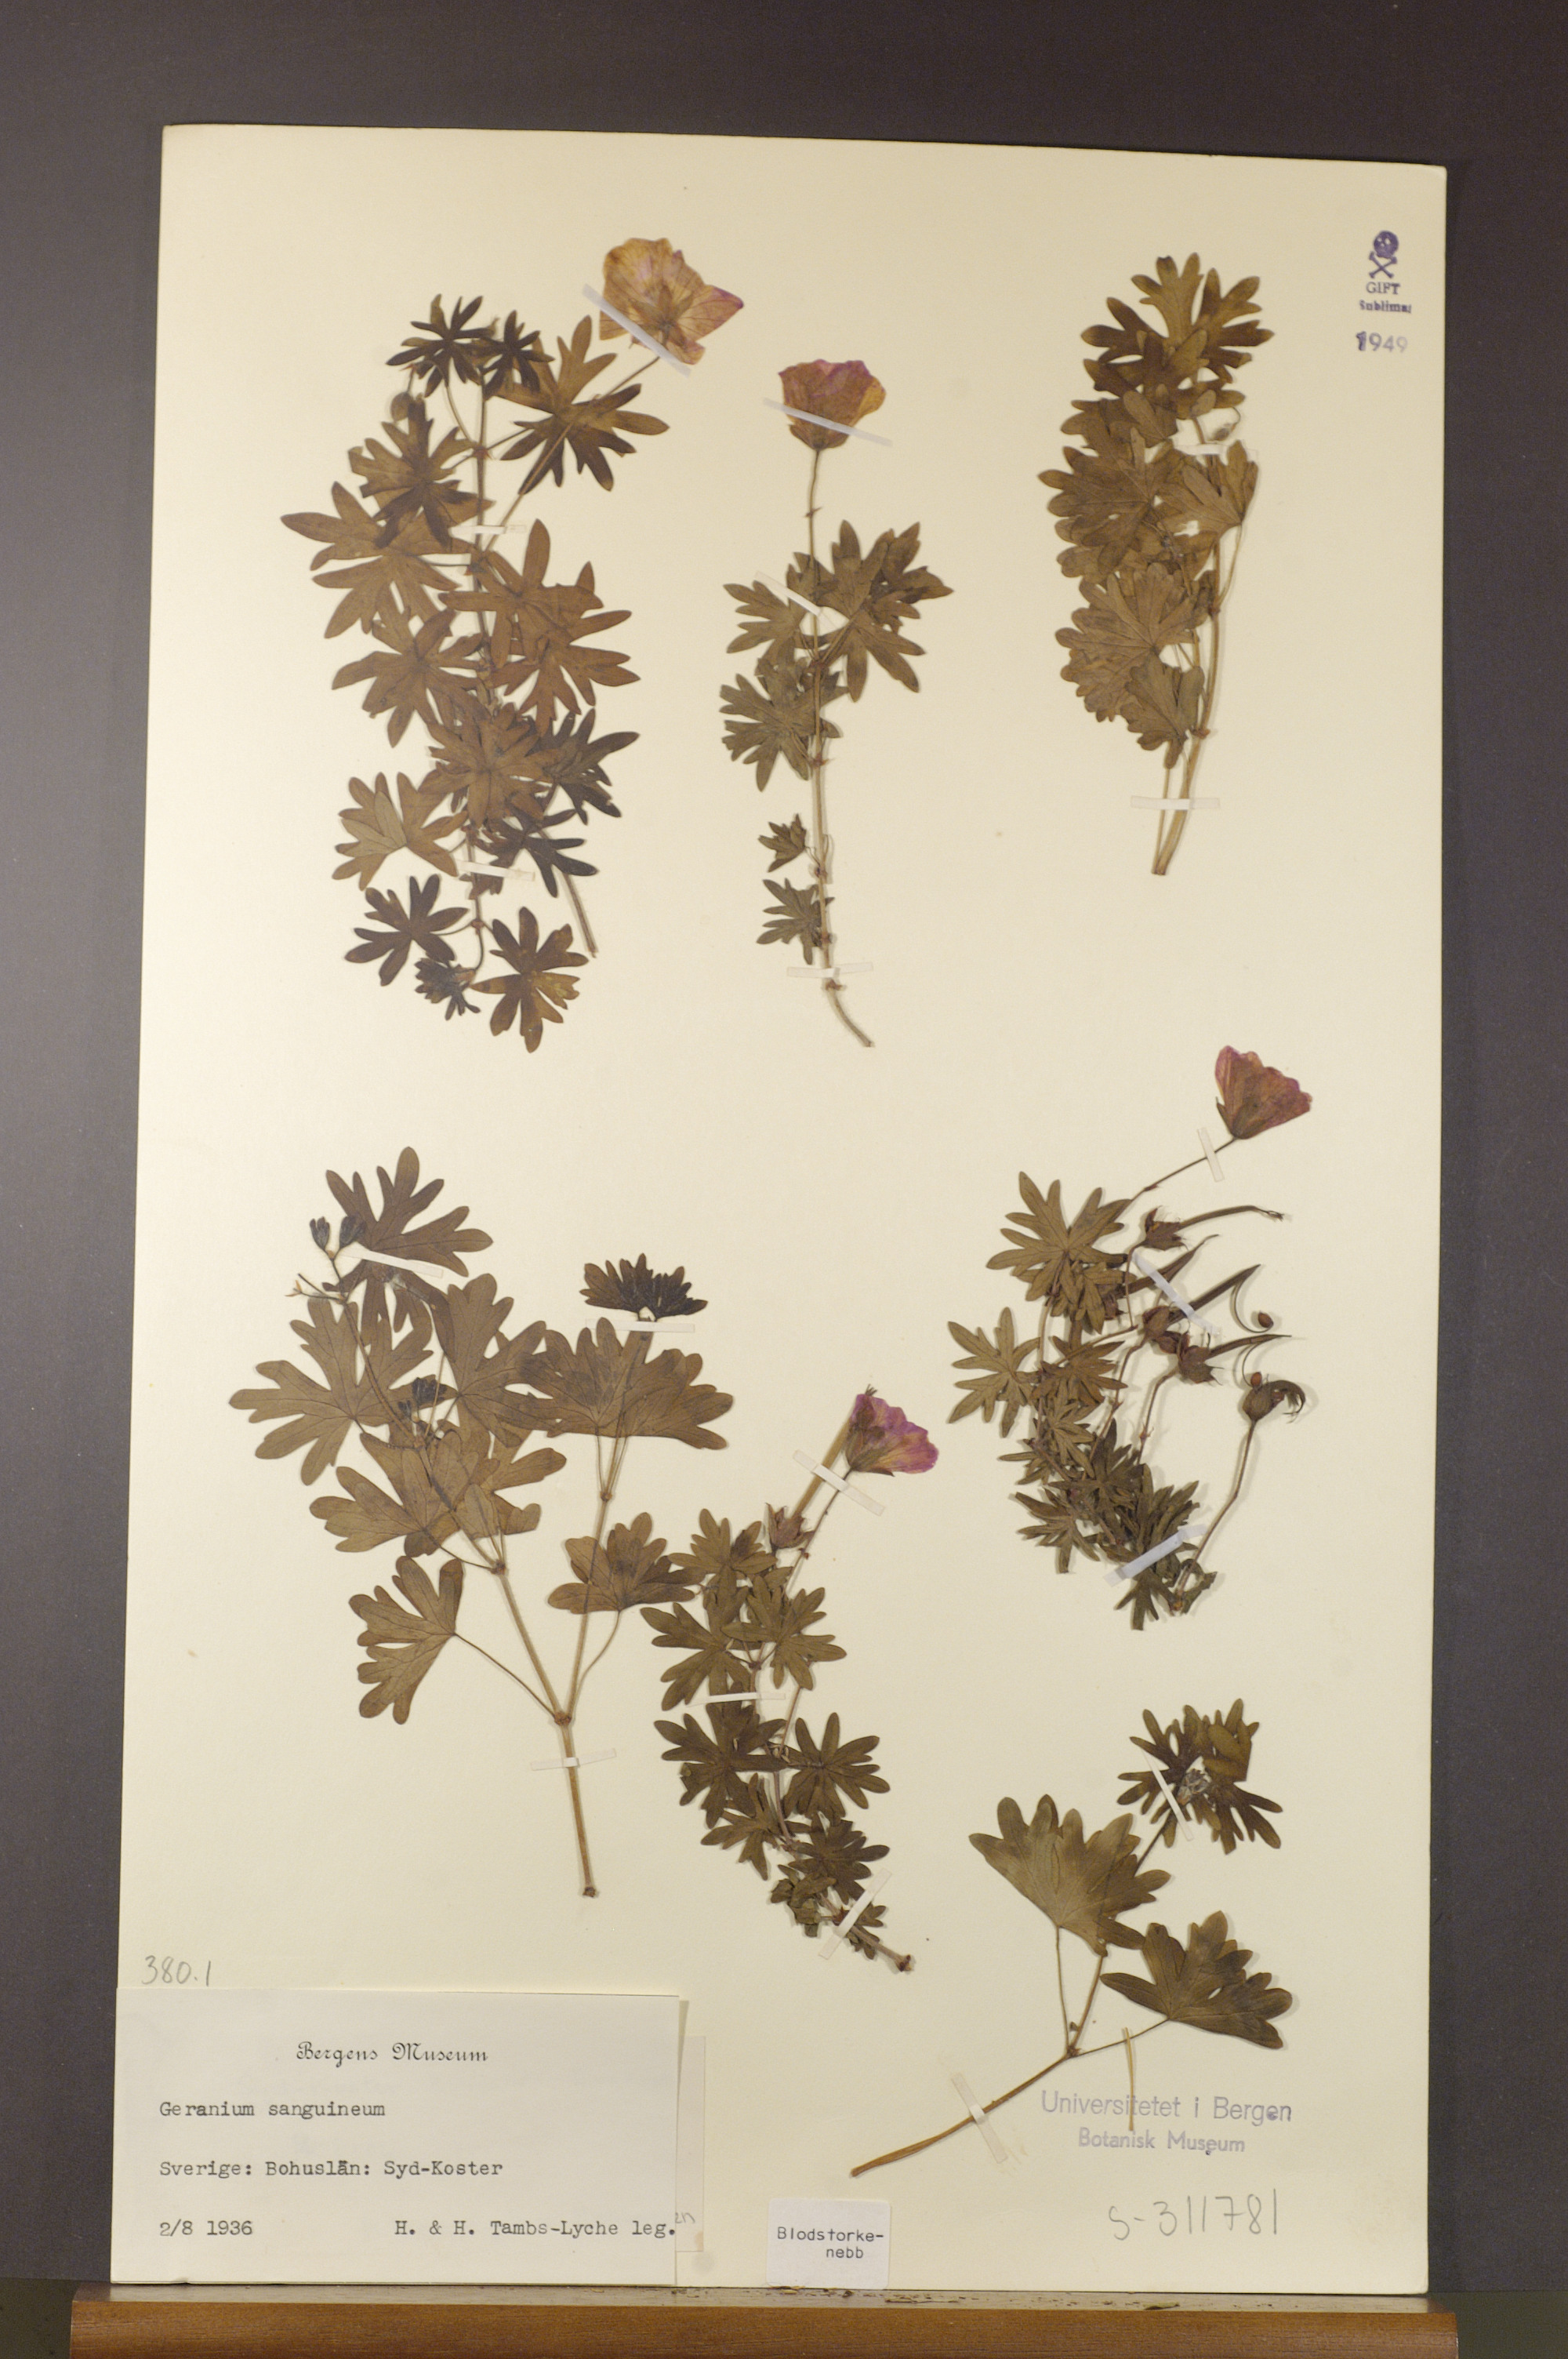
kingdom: Plantae
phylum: Tracheophyta
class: Magnoliopsida
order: Geraniales
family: Geraniaceae
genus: Geranium
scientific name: Geranium sanguineum
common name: Bloody crane's-bill
